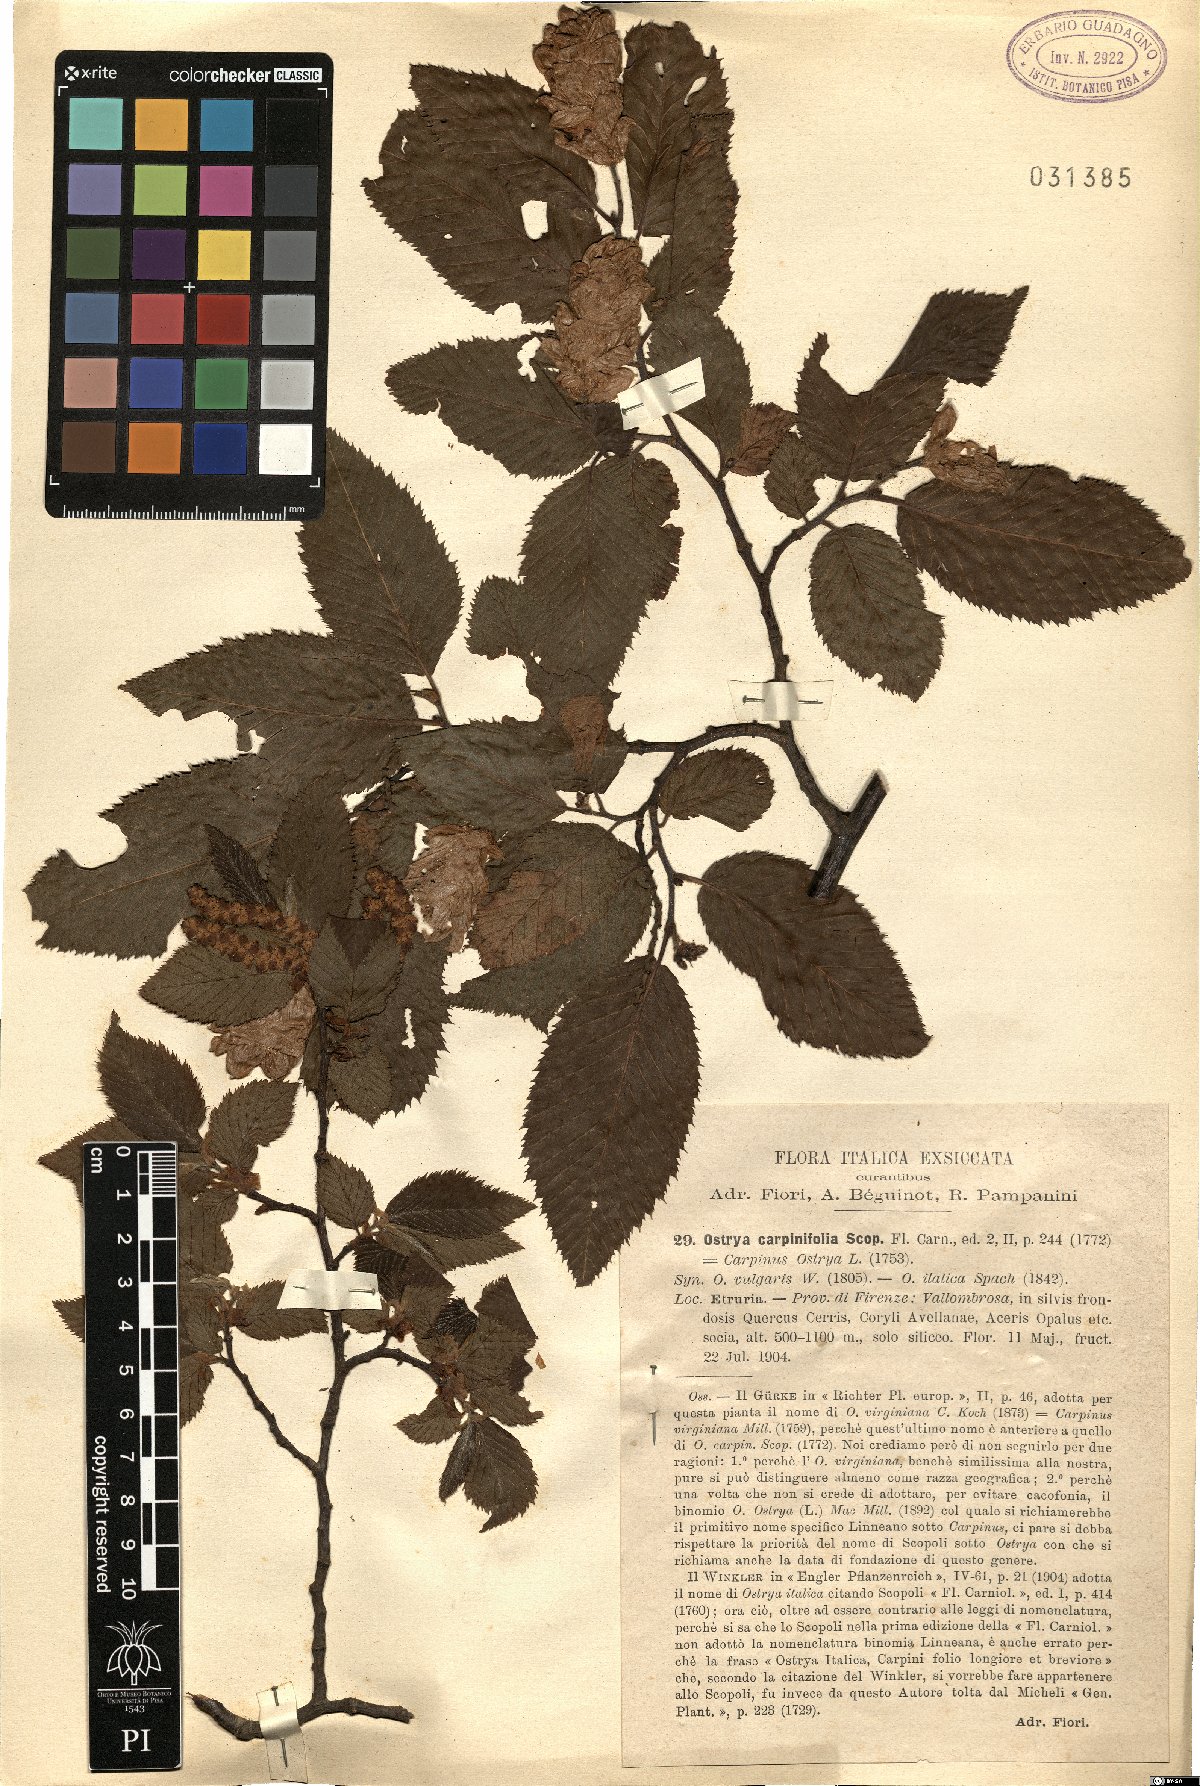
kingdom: Plantae
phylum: Tracheophyta
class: Magnoliopsida
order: Fagales
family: Betulaceae
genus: Ostrya
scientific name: Ostrya carpinifolia
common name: European hop-hornbeam
